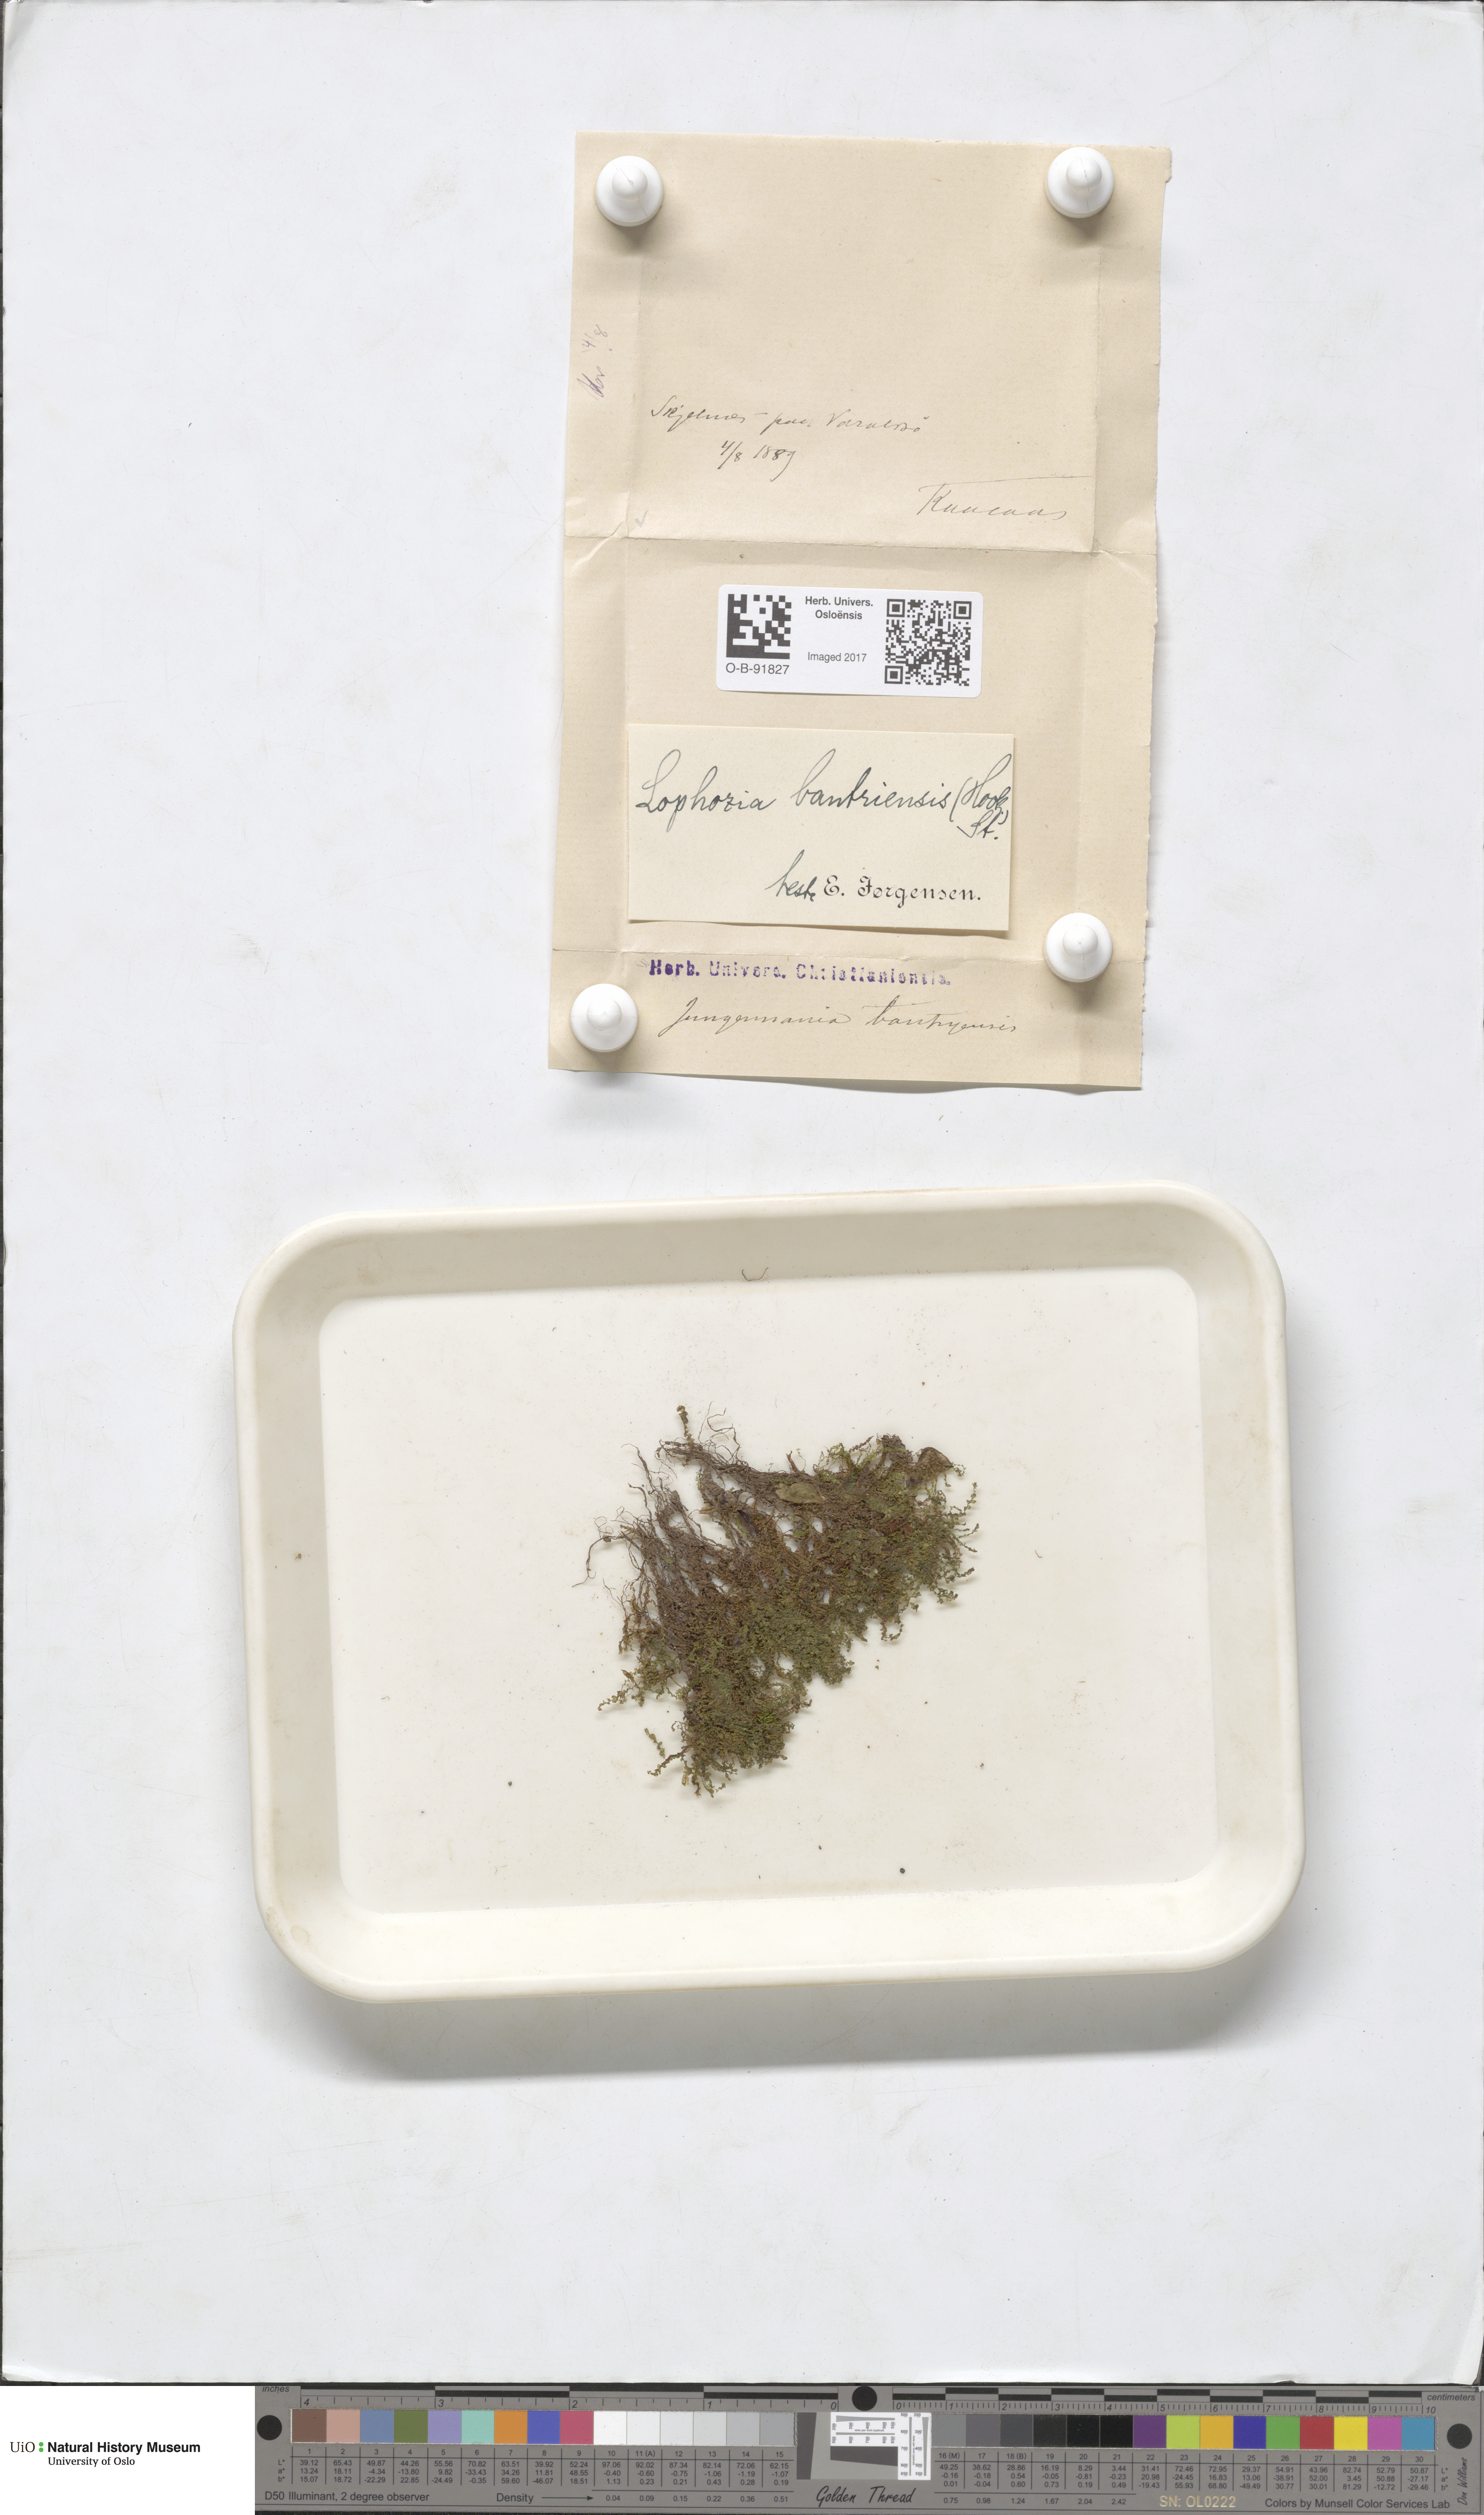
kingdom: Plantae
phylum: Marchantiophyta
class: Jungermanniopsida
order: Jungermanniales
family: Jungermanniaceae
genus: Mesoptychia
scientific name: Mesoptychia bantriensis
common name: Bantry notchwort
